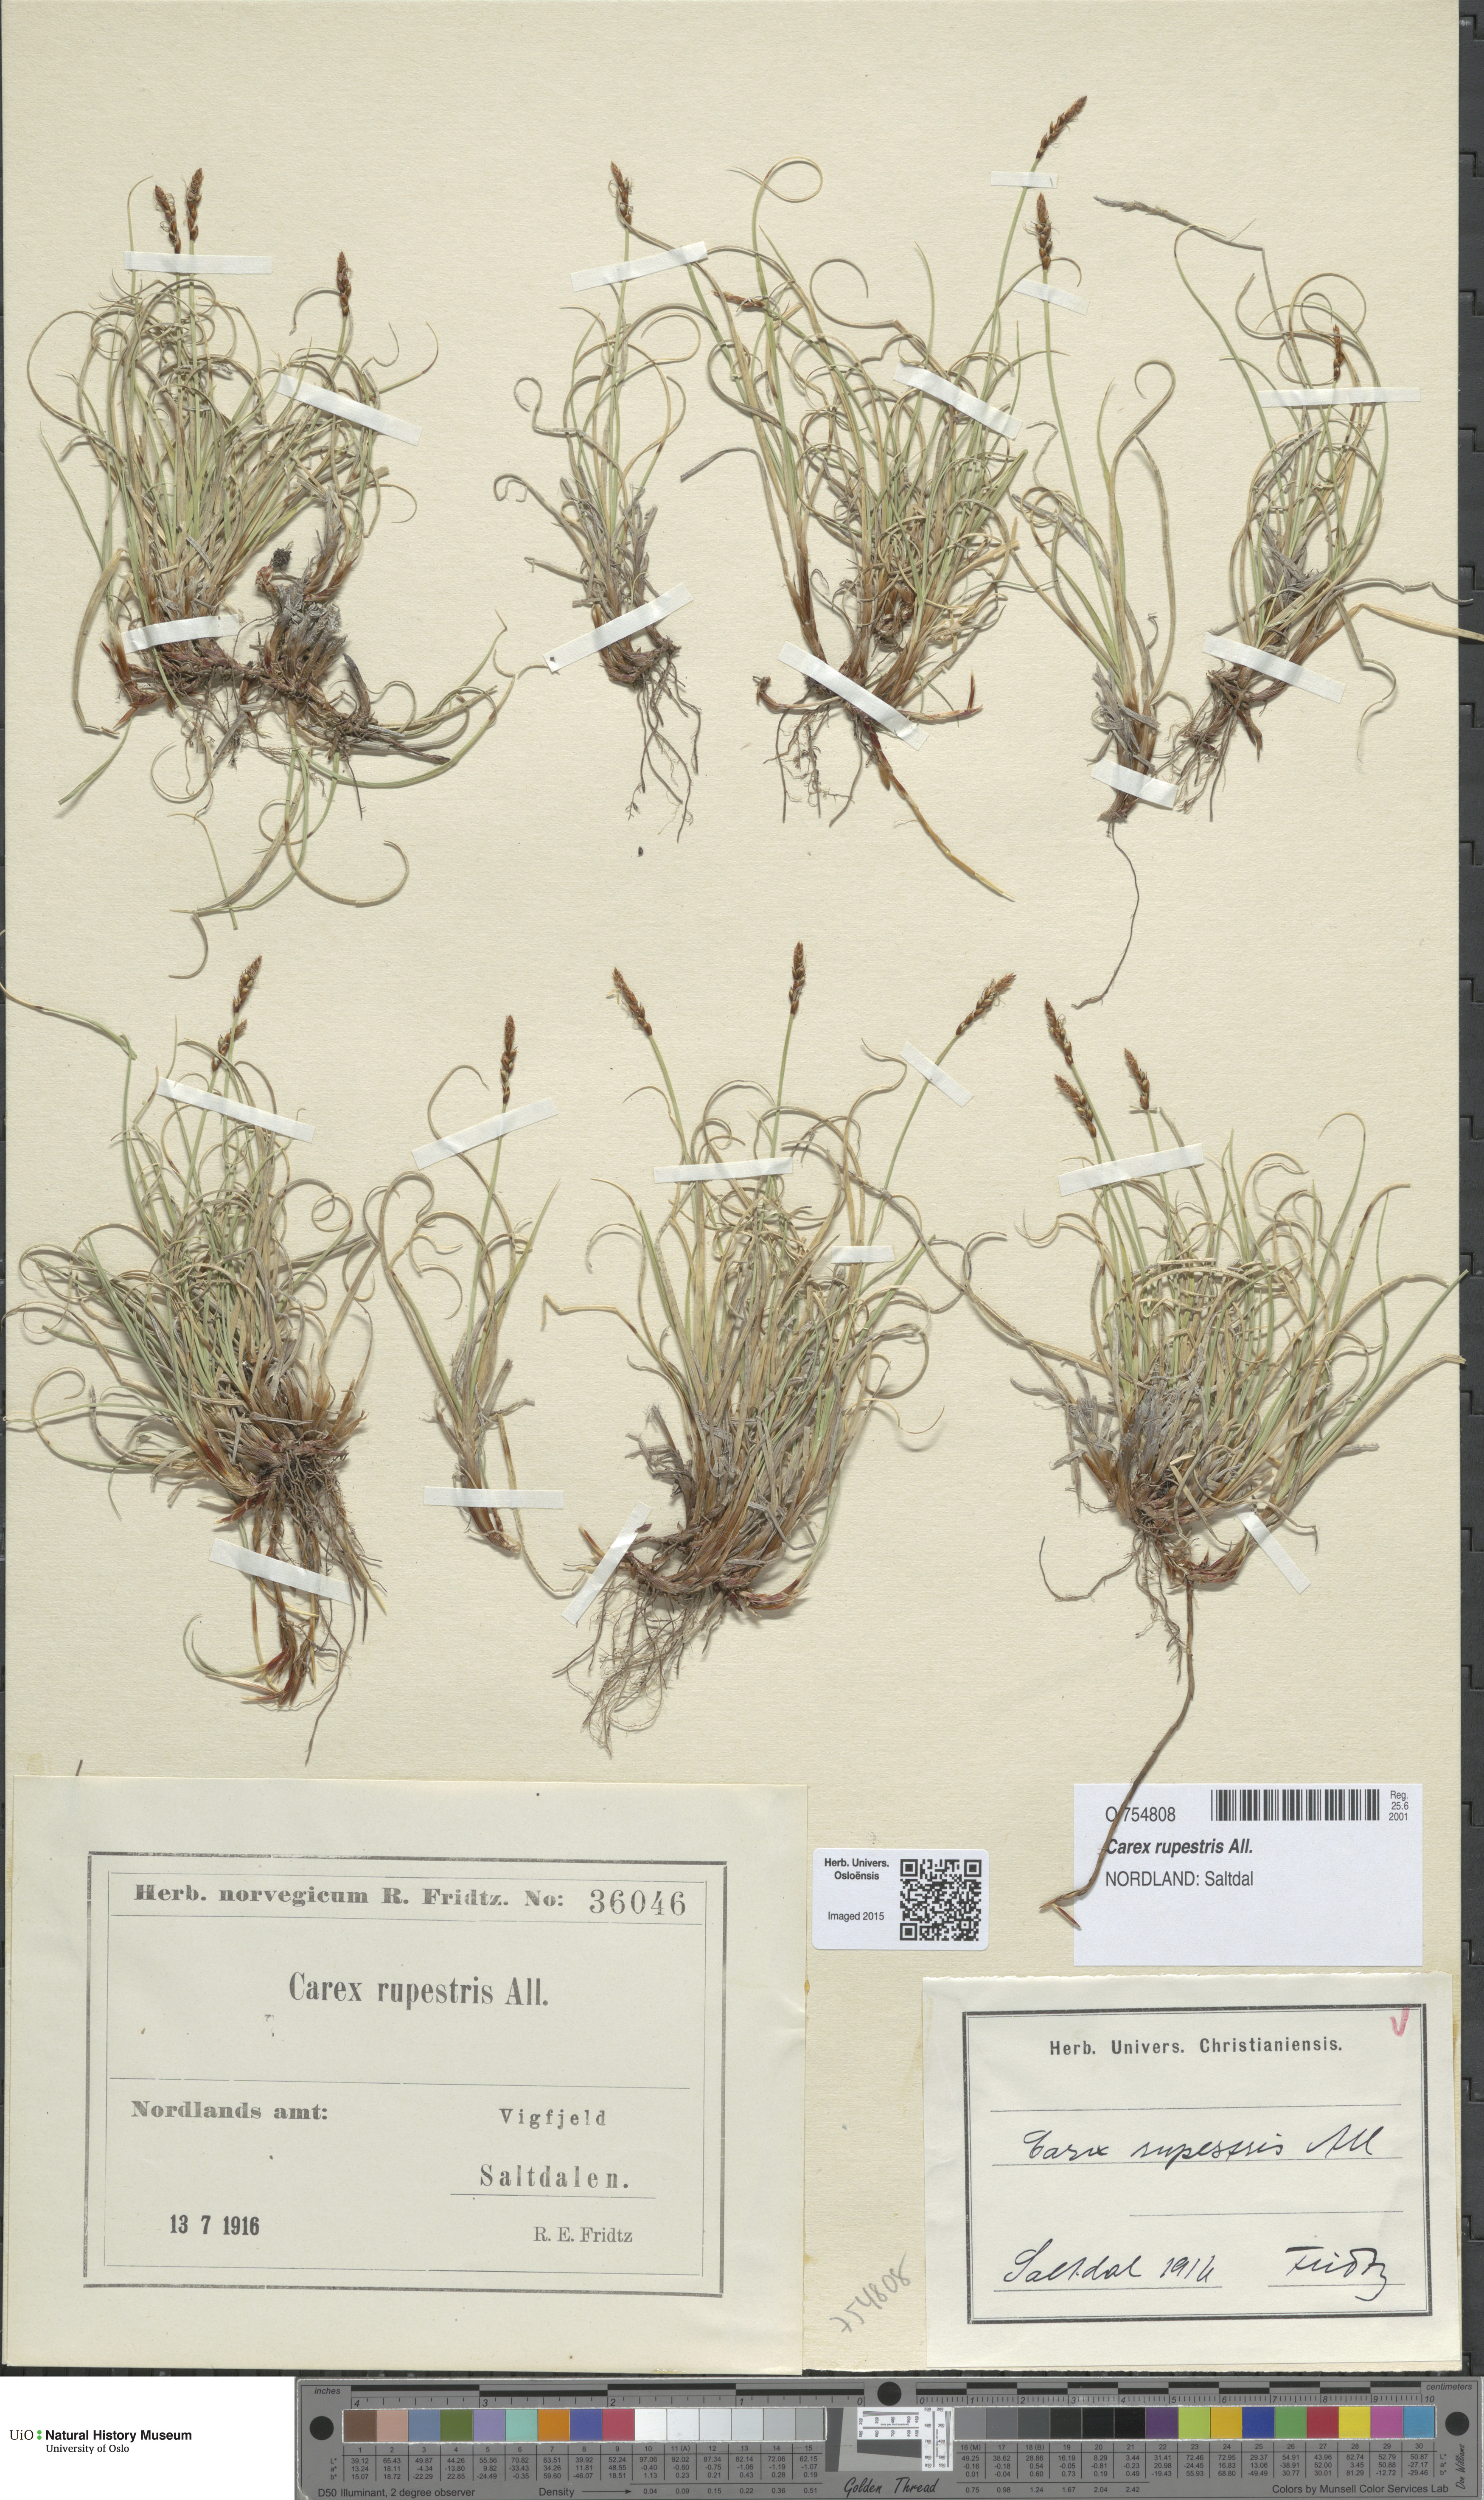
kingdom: Plantae
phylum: Tracheophyta
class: Liliopsida
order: Poales
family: Cyperaceae
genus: Carex
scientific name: Carex rupestris
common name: Rock sedge
